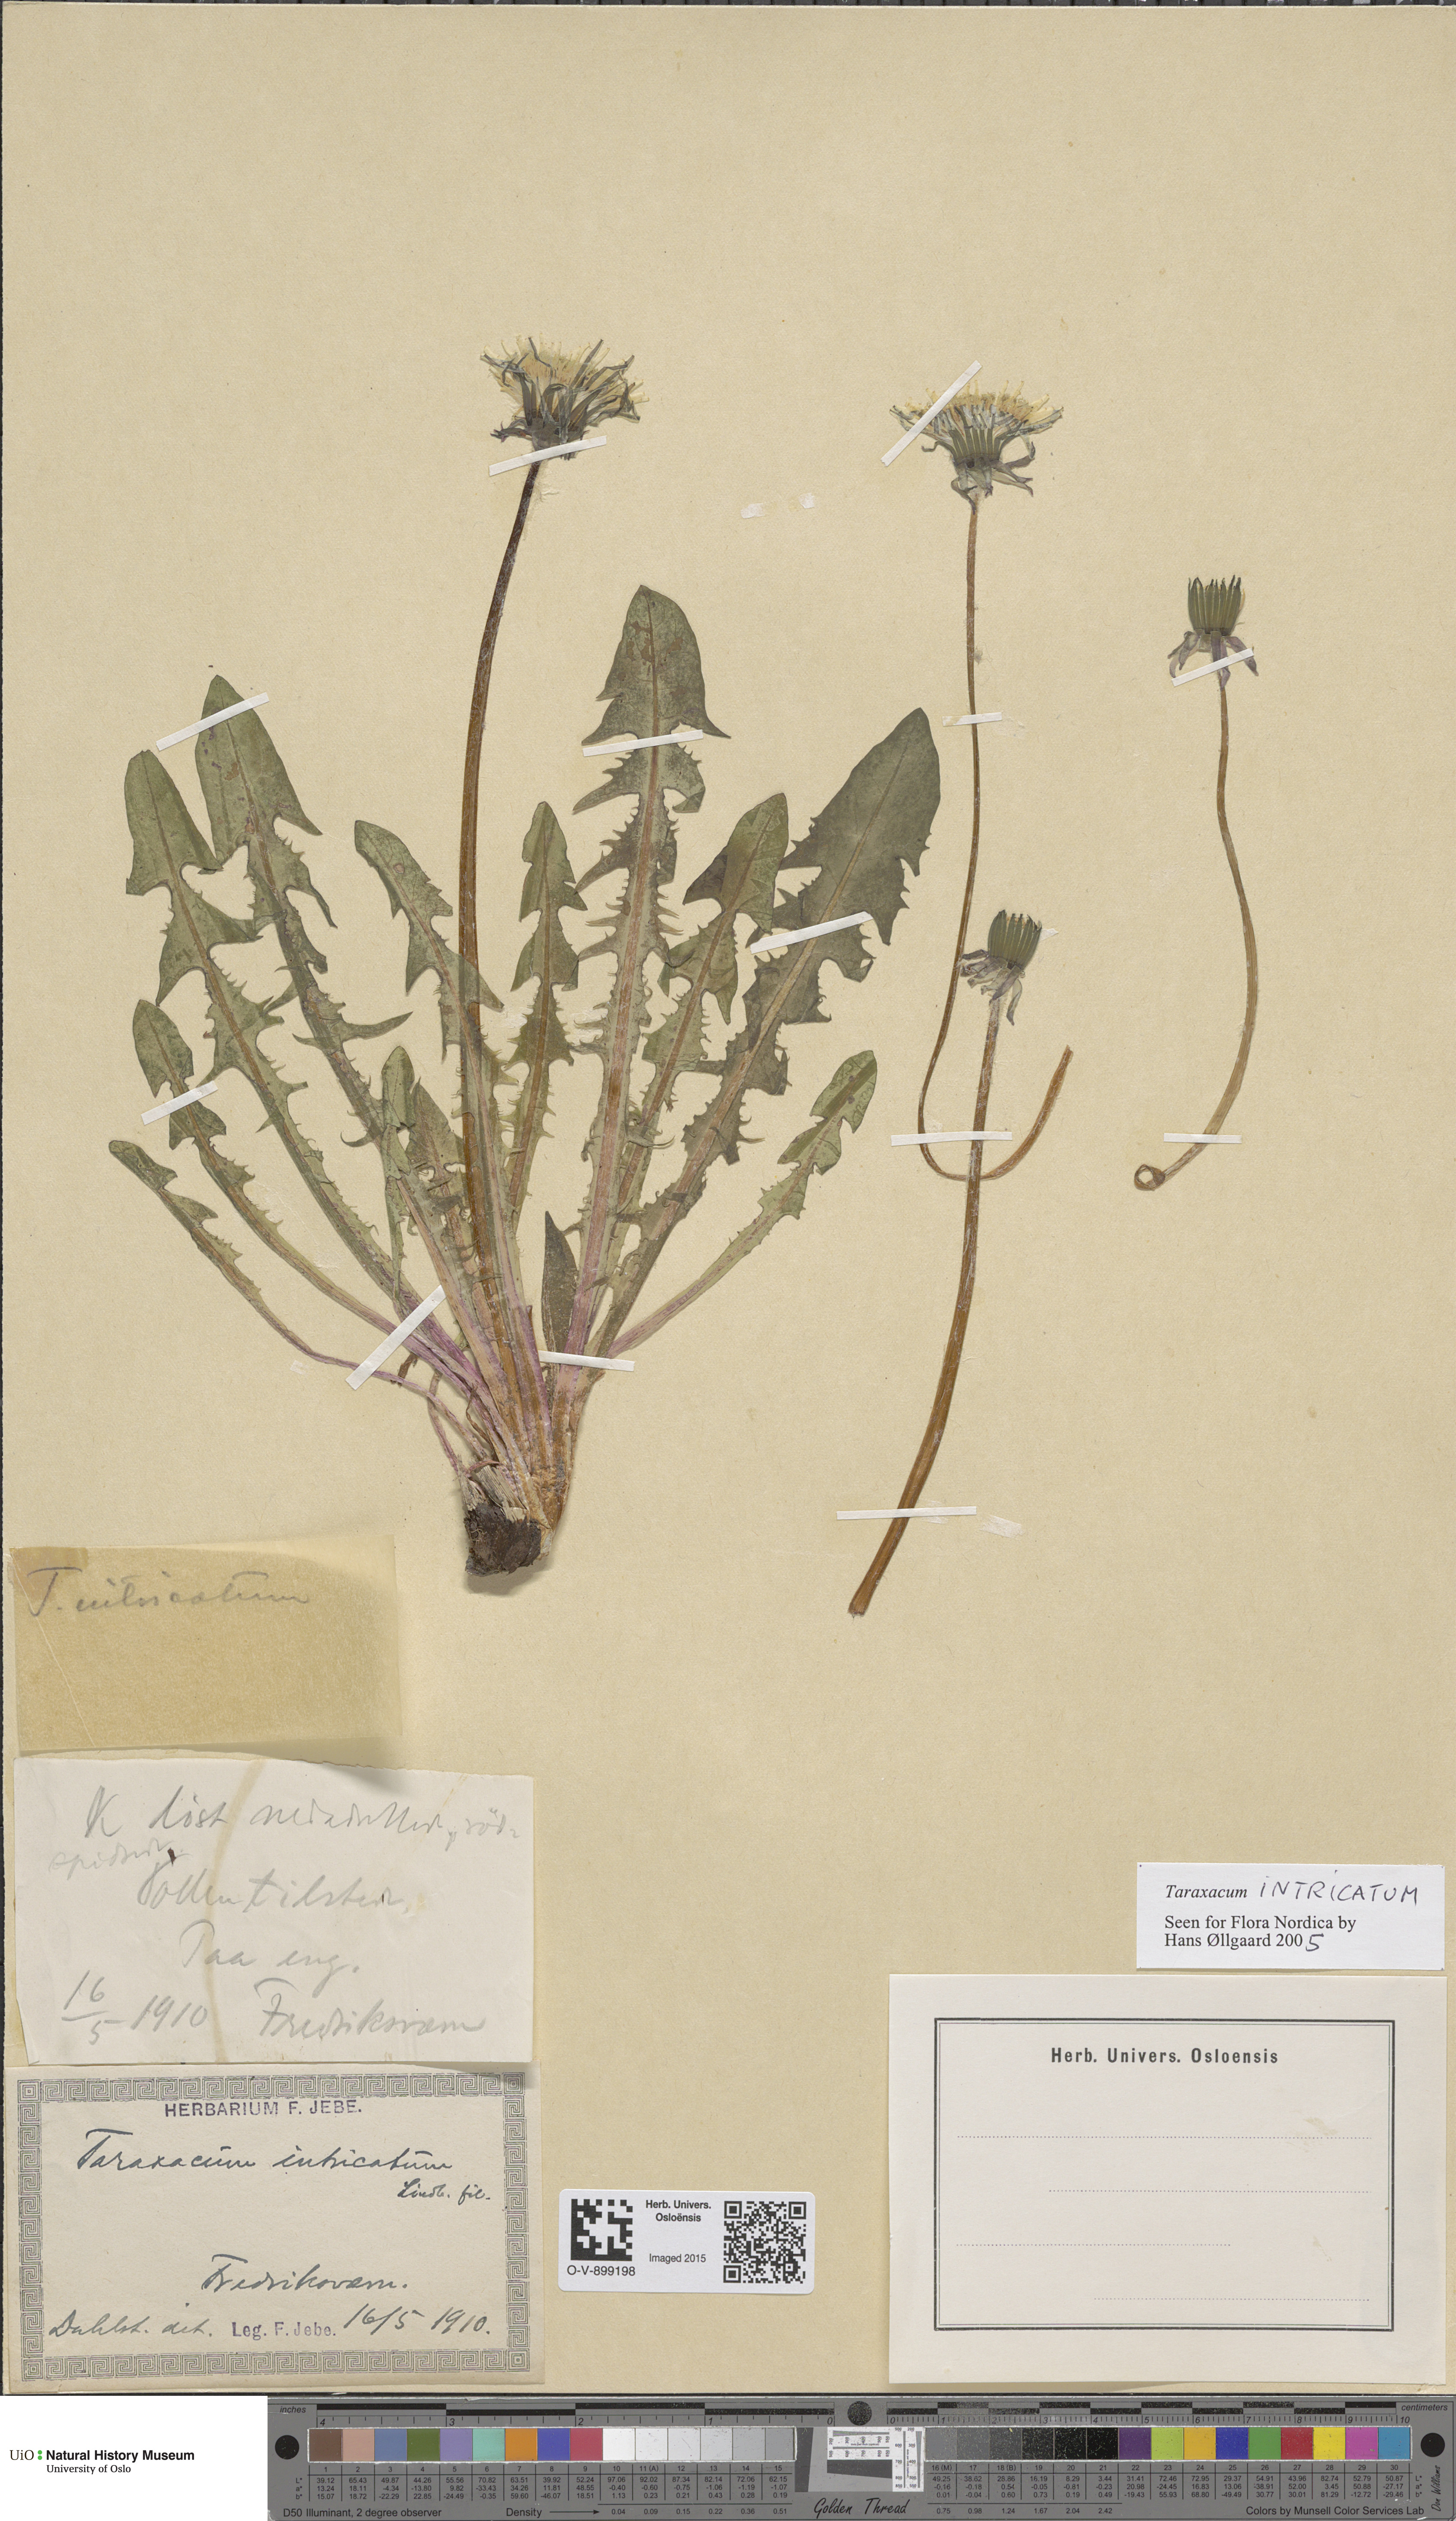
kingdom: Plantae
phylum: Tracheophyta
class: Magnoliopsida
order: Asterales
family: Asteraceae
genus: Taraxacum
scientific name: Taraxacum recurvum
